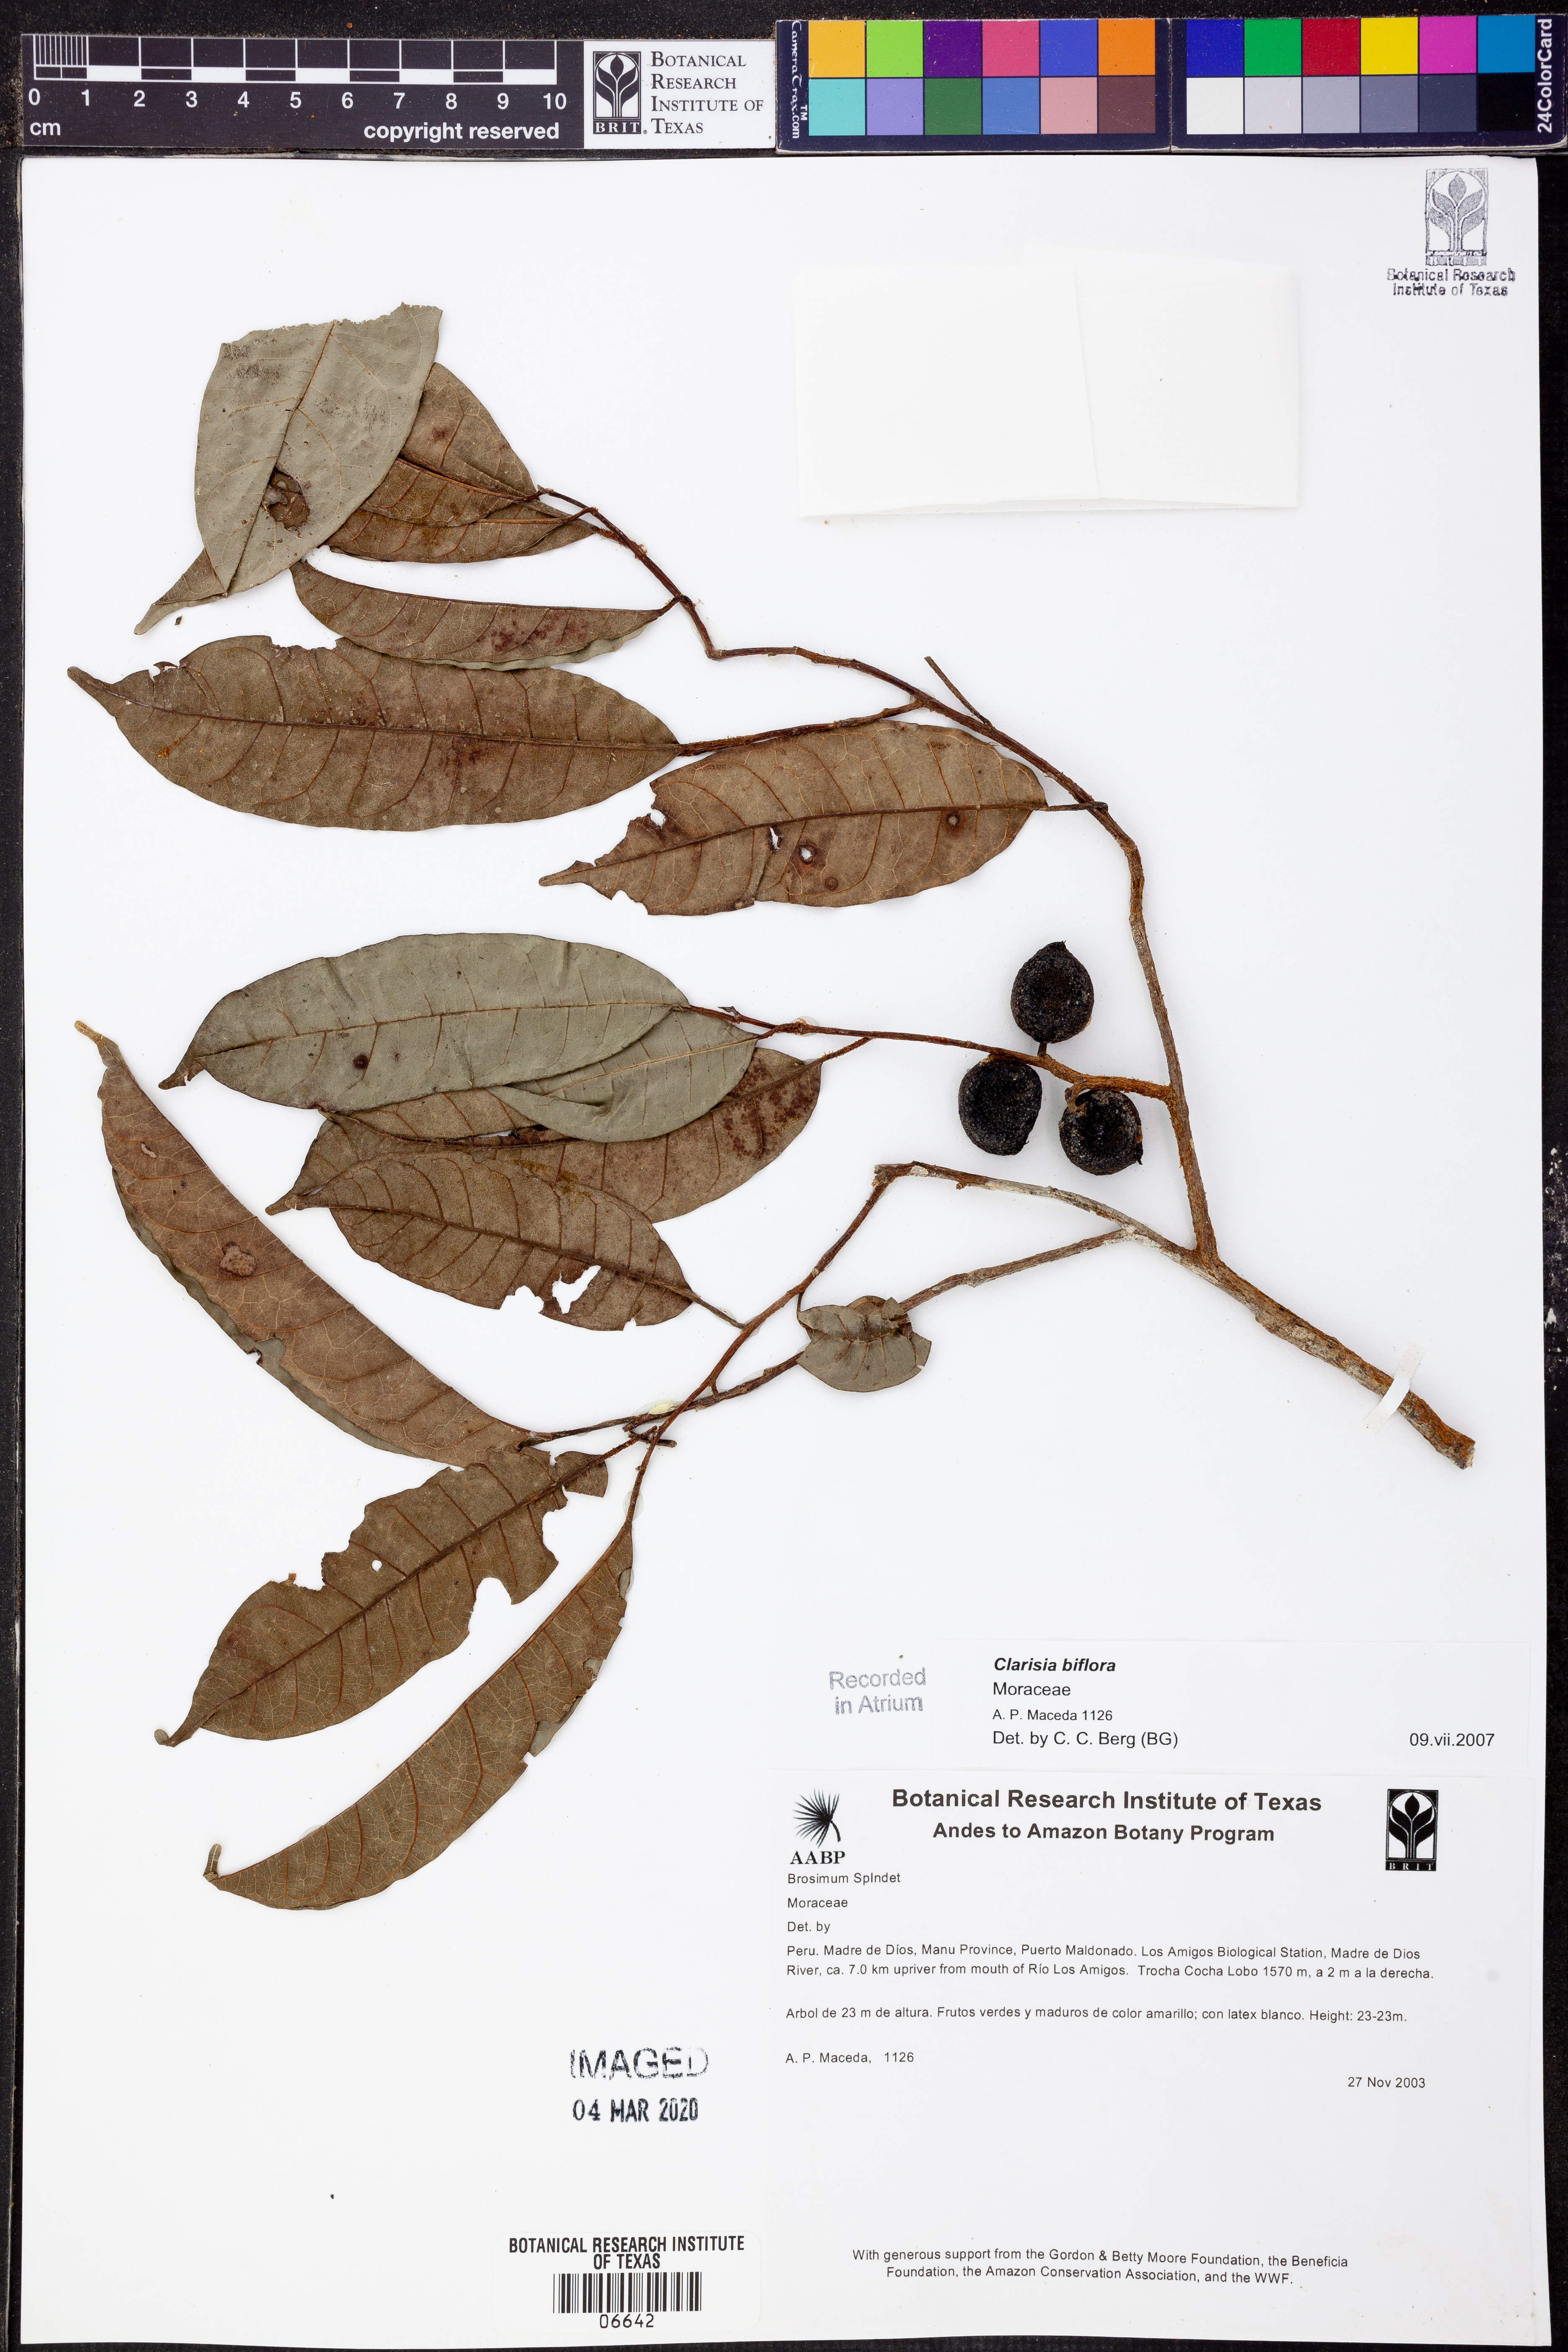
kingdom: Plantae
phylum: Tracheophyta
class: Magnoliopsida
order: Rosales
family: Moraceae
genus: Clarisia
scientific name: Clarisia
